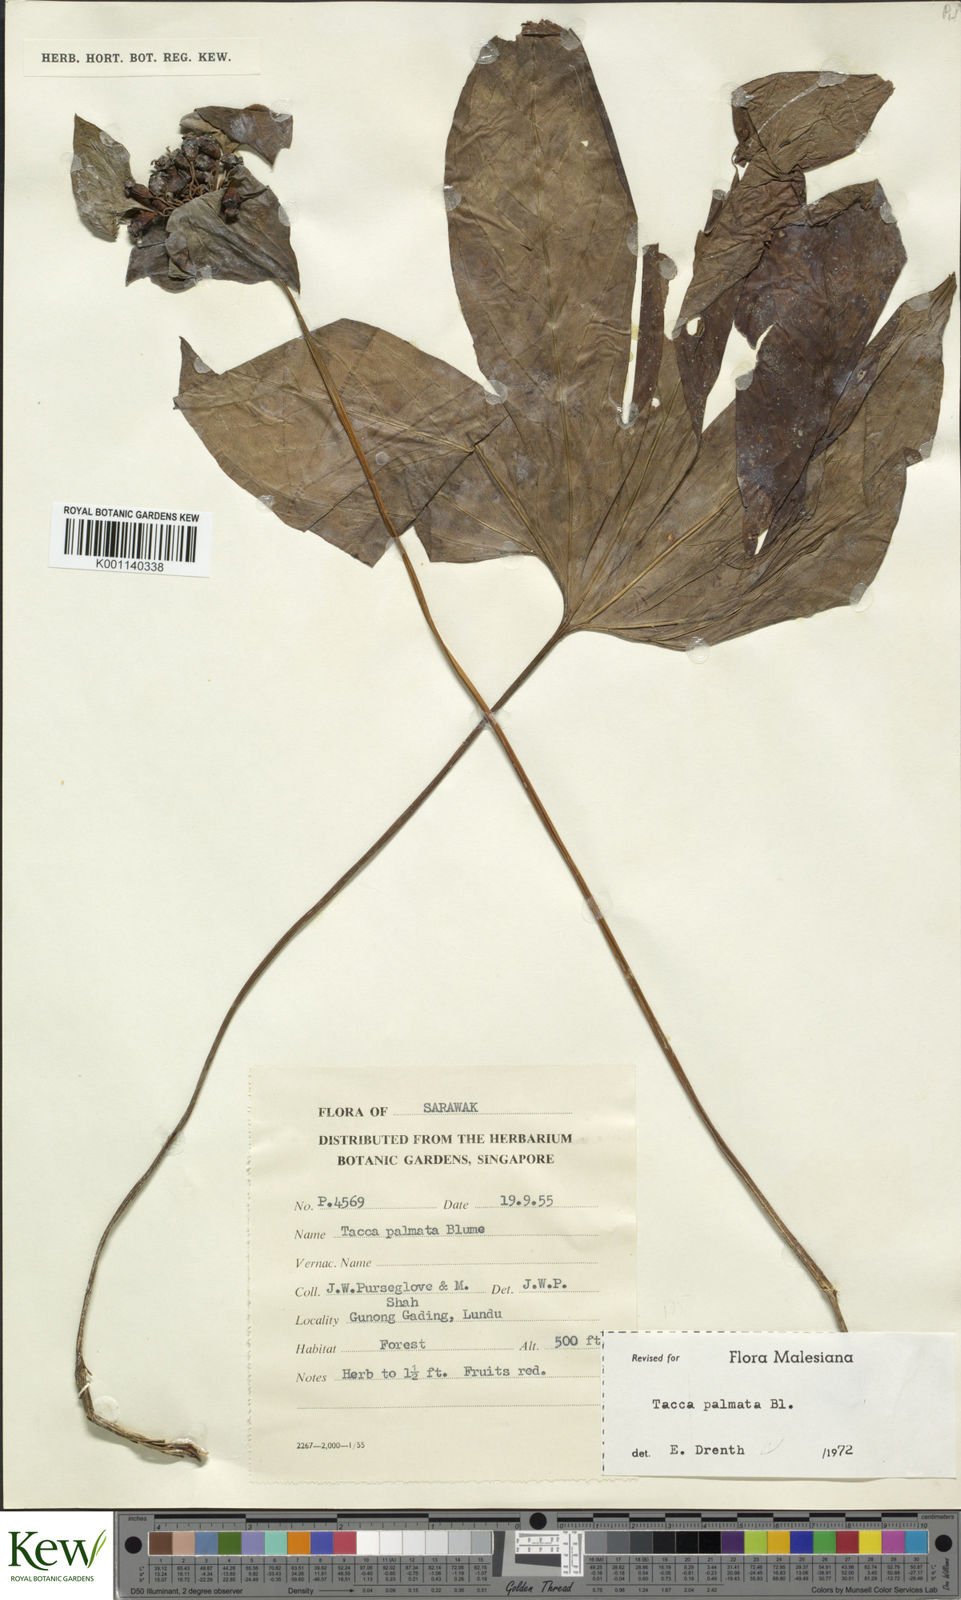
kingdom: Plantae
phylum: Tracheophyta
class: Liliopsida
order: Dioscoreales
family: Dioscoreaceae
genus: Tacca
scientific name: Tacca palmata
